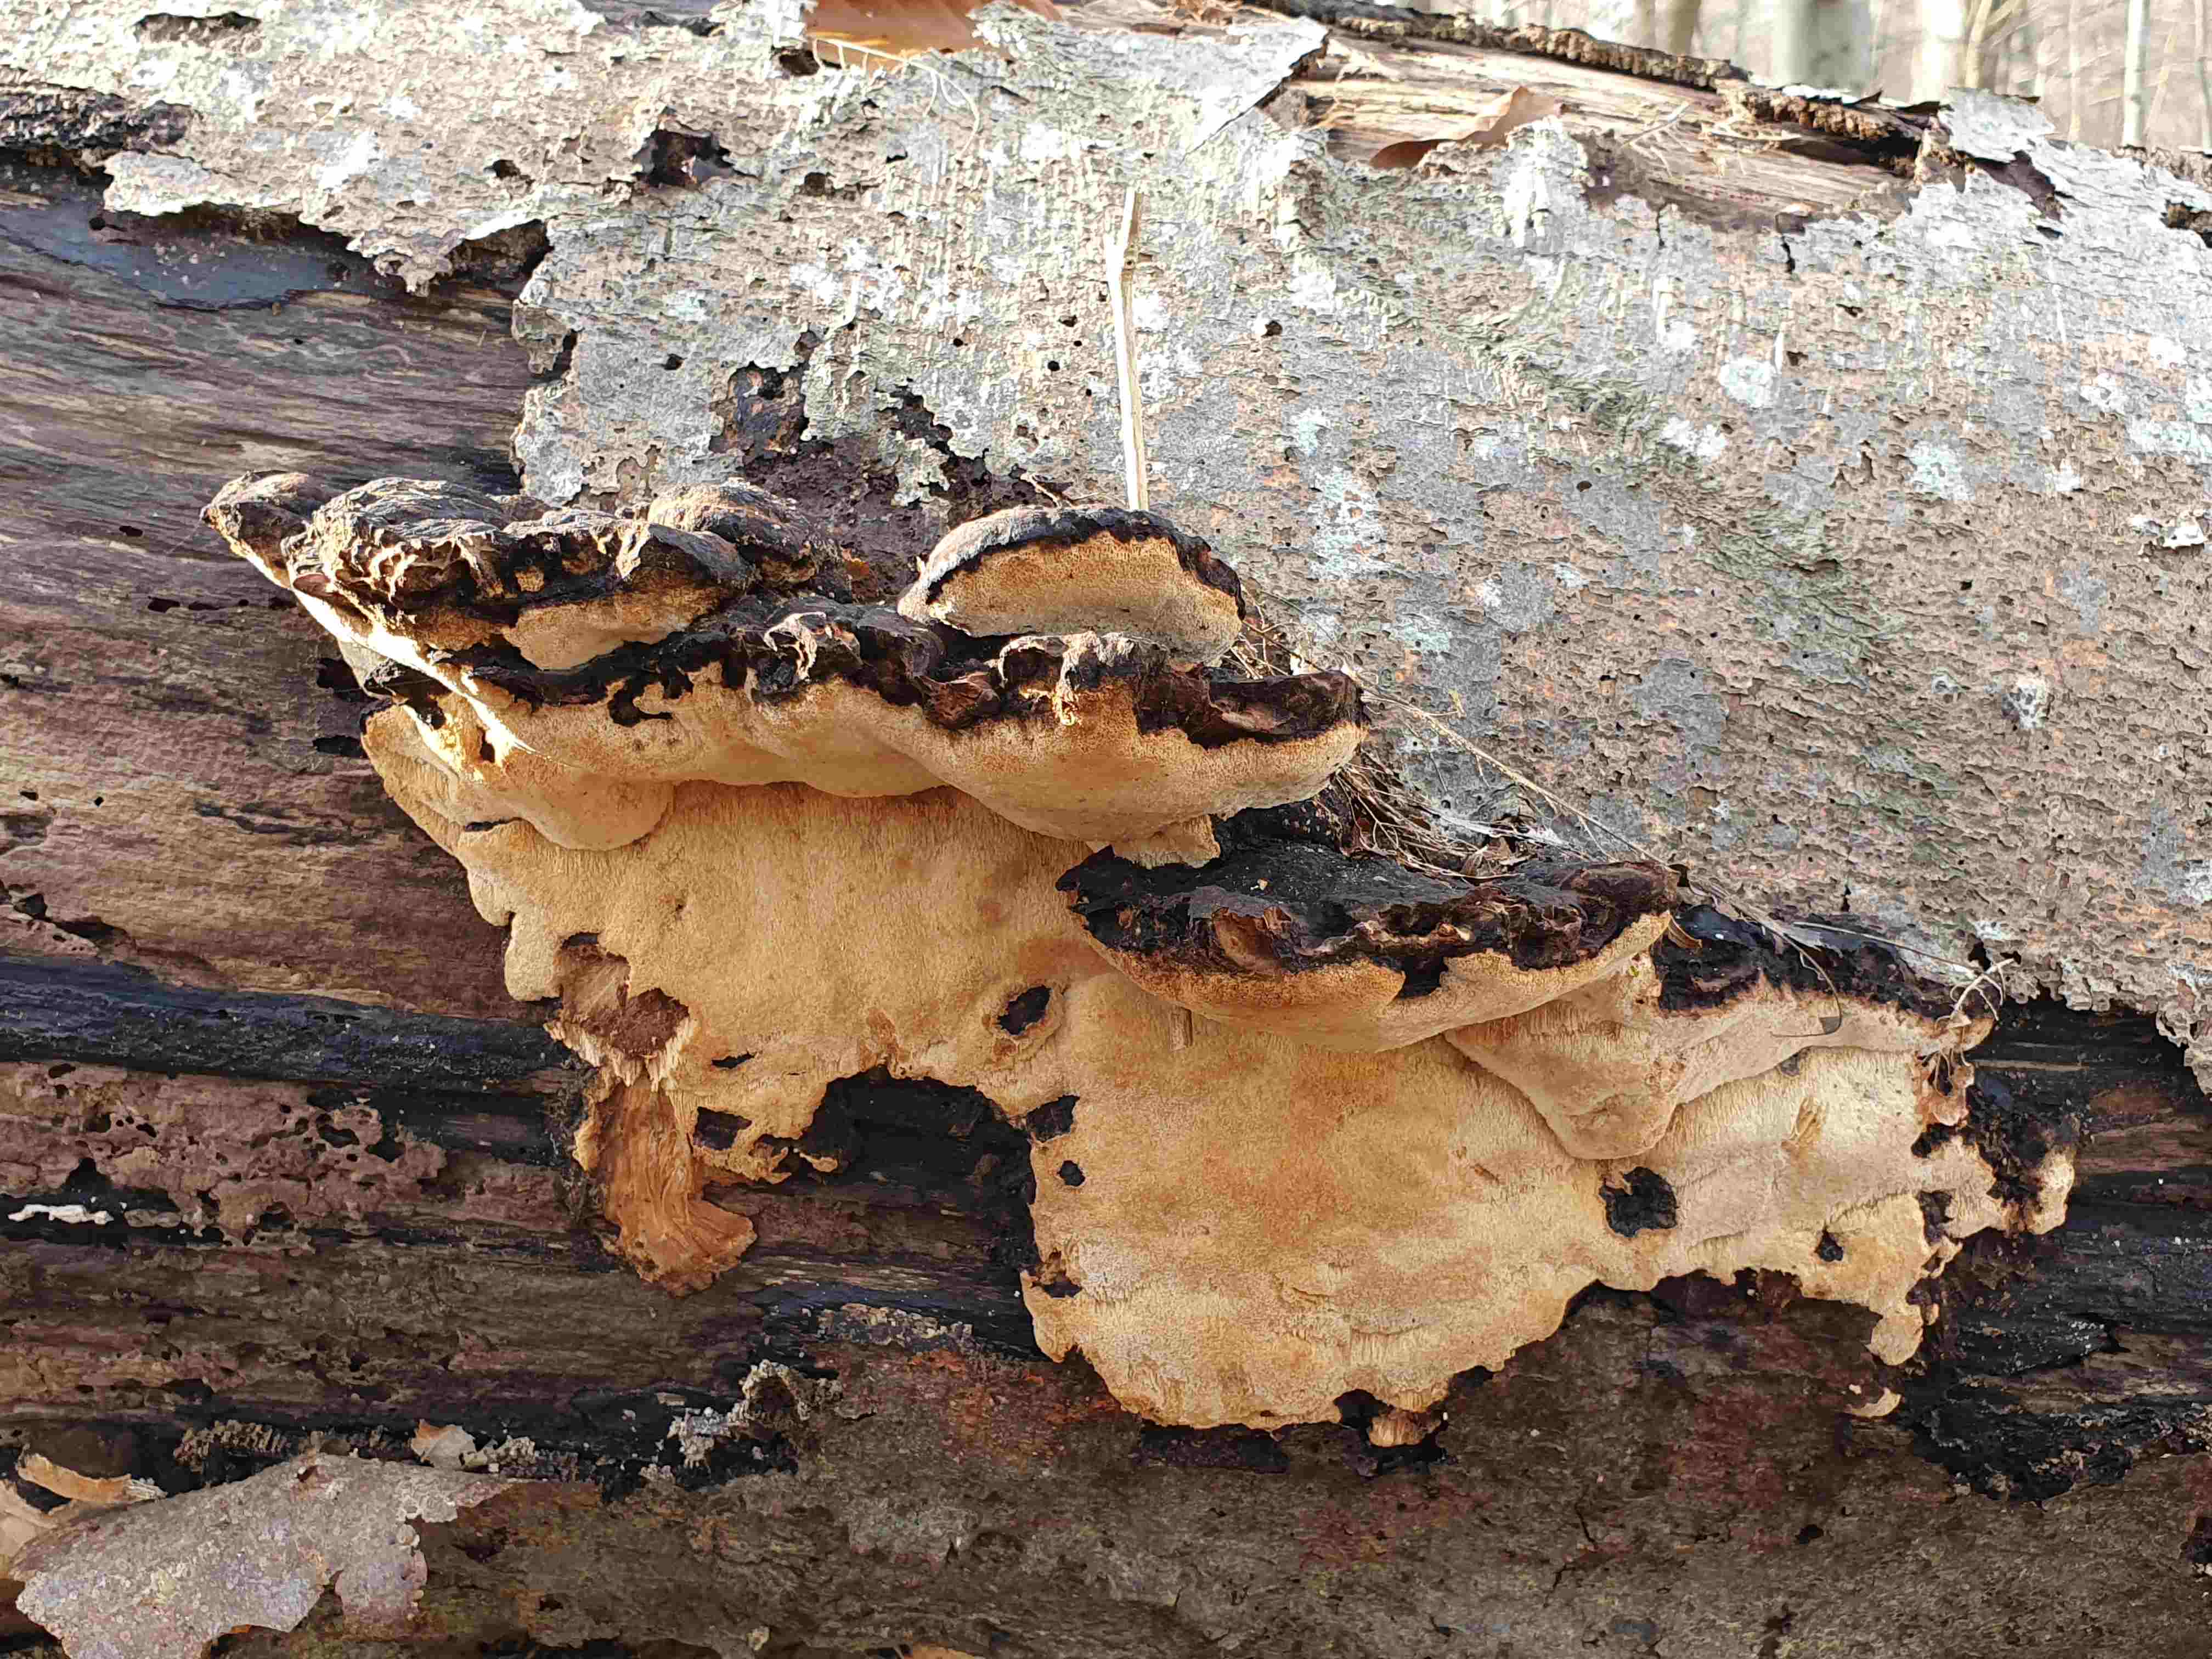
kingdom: Fungi
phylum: Basidiomycota
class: Agaricomycetes
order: Polyporales
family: Ischnodermataceae
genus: Ischnoderma
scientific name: Ischnoderma resinosum
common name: løv-tjæreporesvamp
